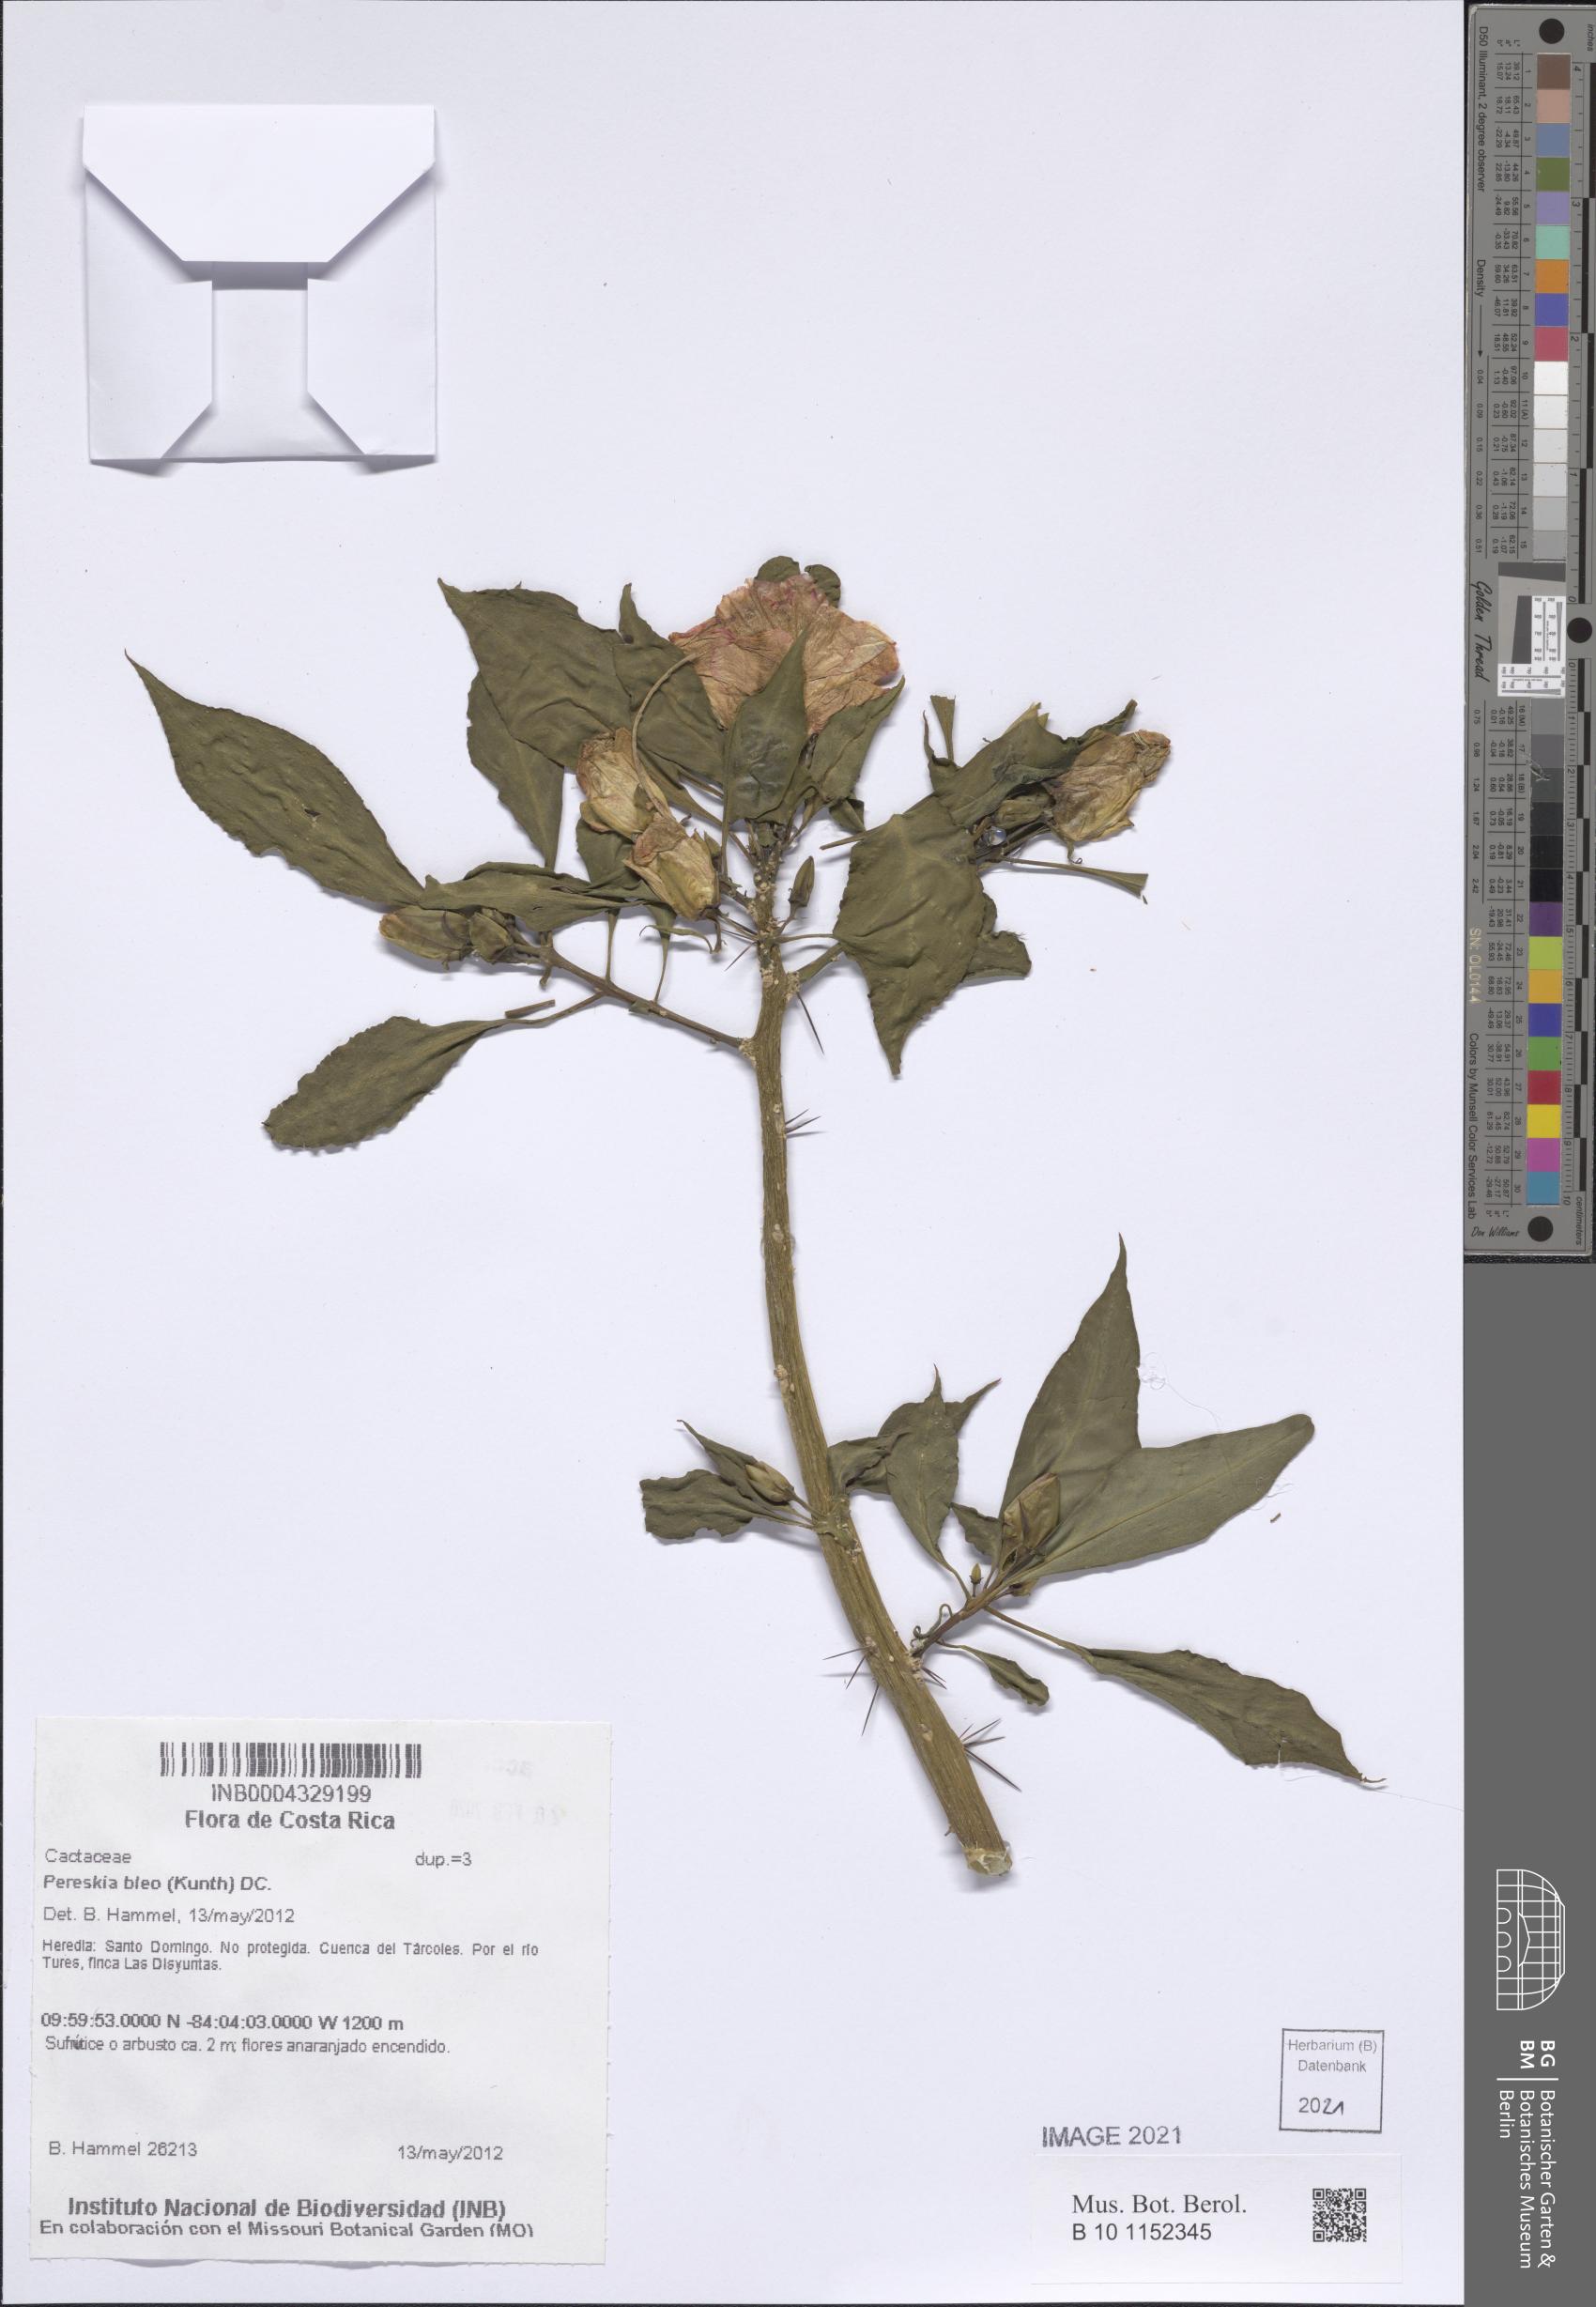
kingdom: Plantae
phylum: Tracheophyta
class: Magnoliopsida
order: Caryophyllales
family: Cactaceae
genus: Leuenbergeria
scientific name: Leuenbergeria bleo
